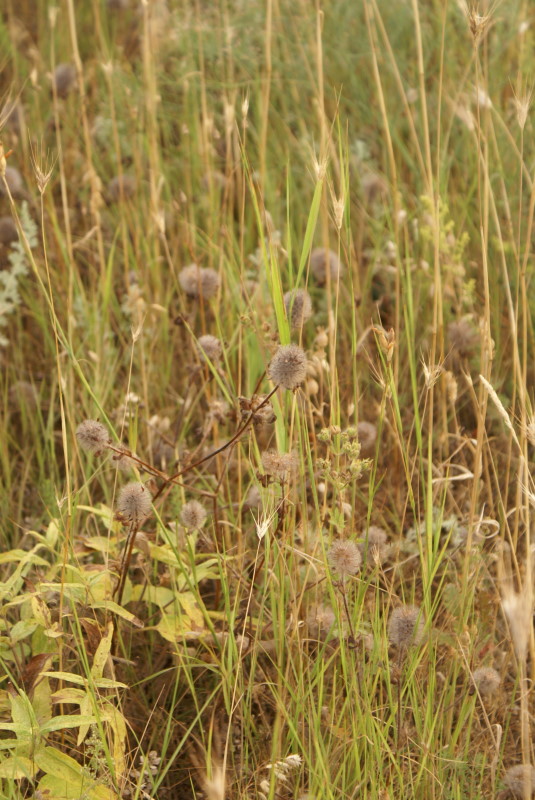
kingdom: Plantae
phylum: Tracheophyta
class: Magnoliopsida
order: Fabales
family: Fabaceae
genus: Trifolium
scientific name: Trifolium arvense
